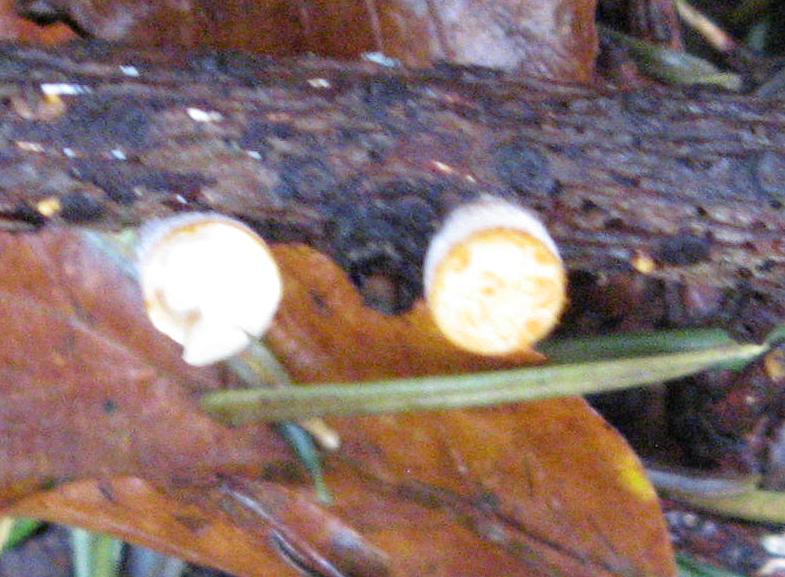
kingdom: Fungi
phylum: Basidiomycota
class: Agaricomycetes
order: Agaricales
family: Nidulariaceae
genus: Crucibulum
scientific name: Crucibulum crucibuliforme
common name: krukkesvamp
